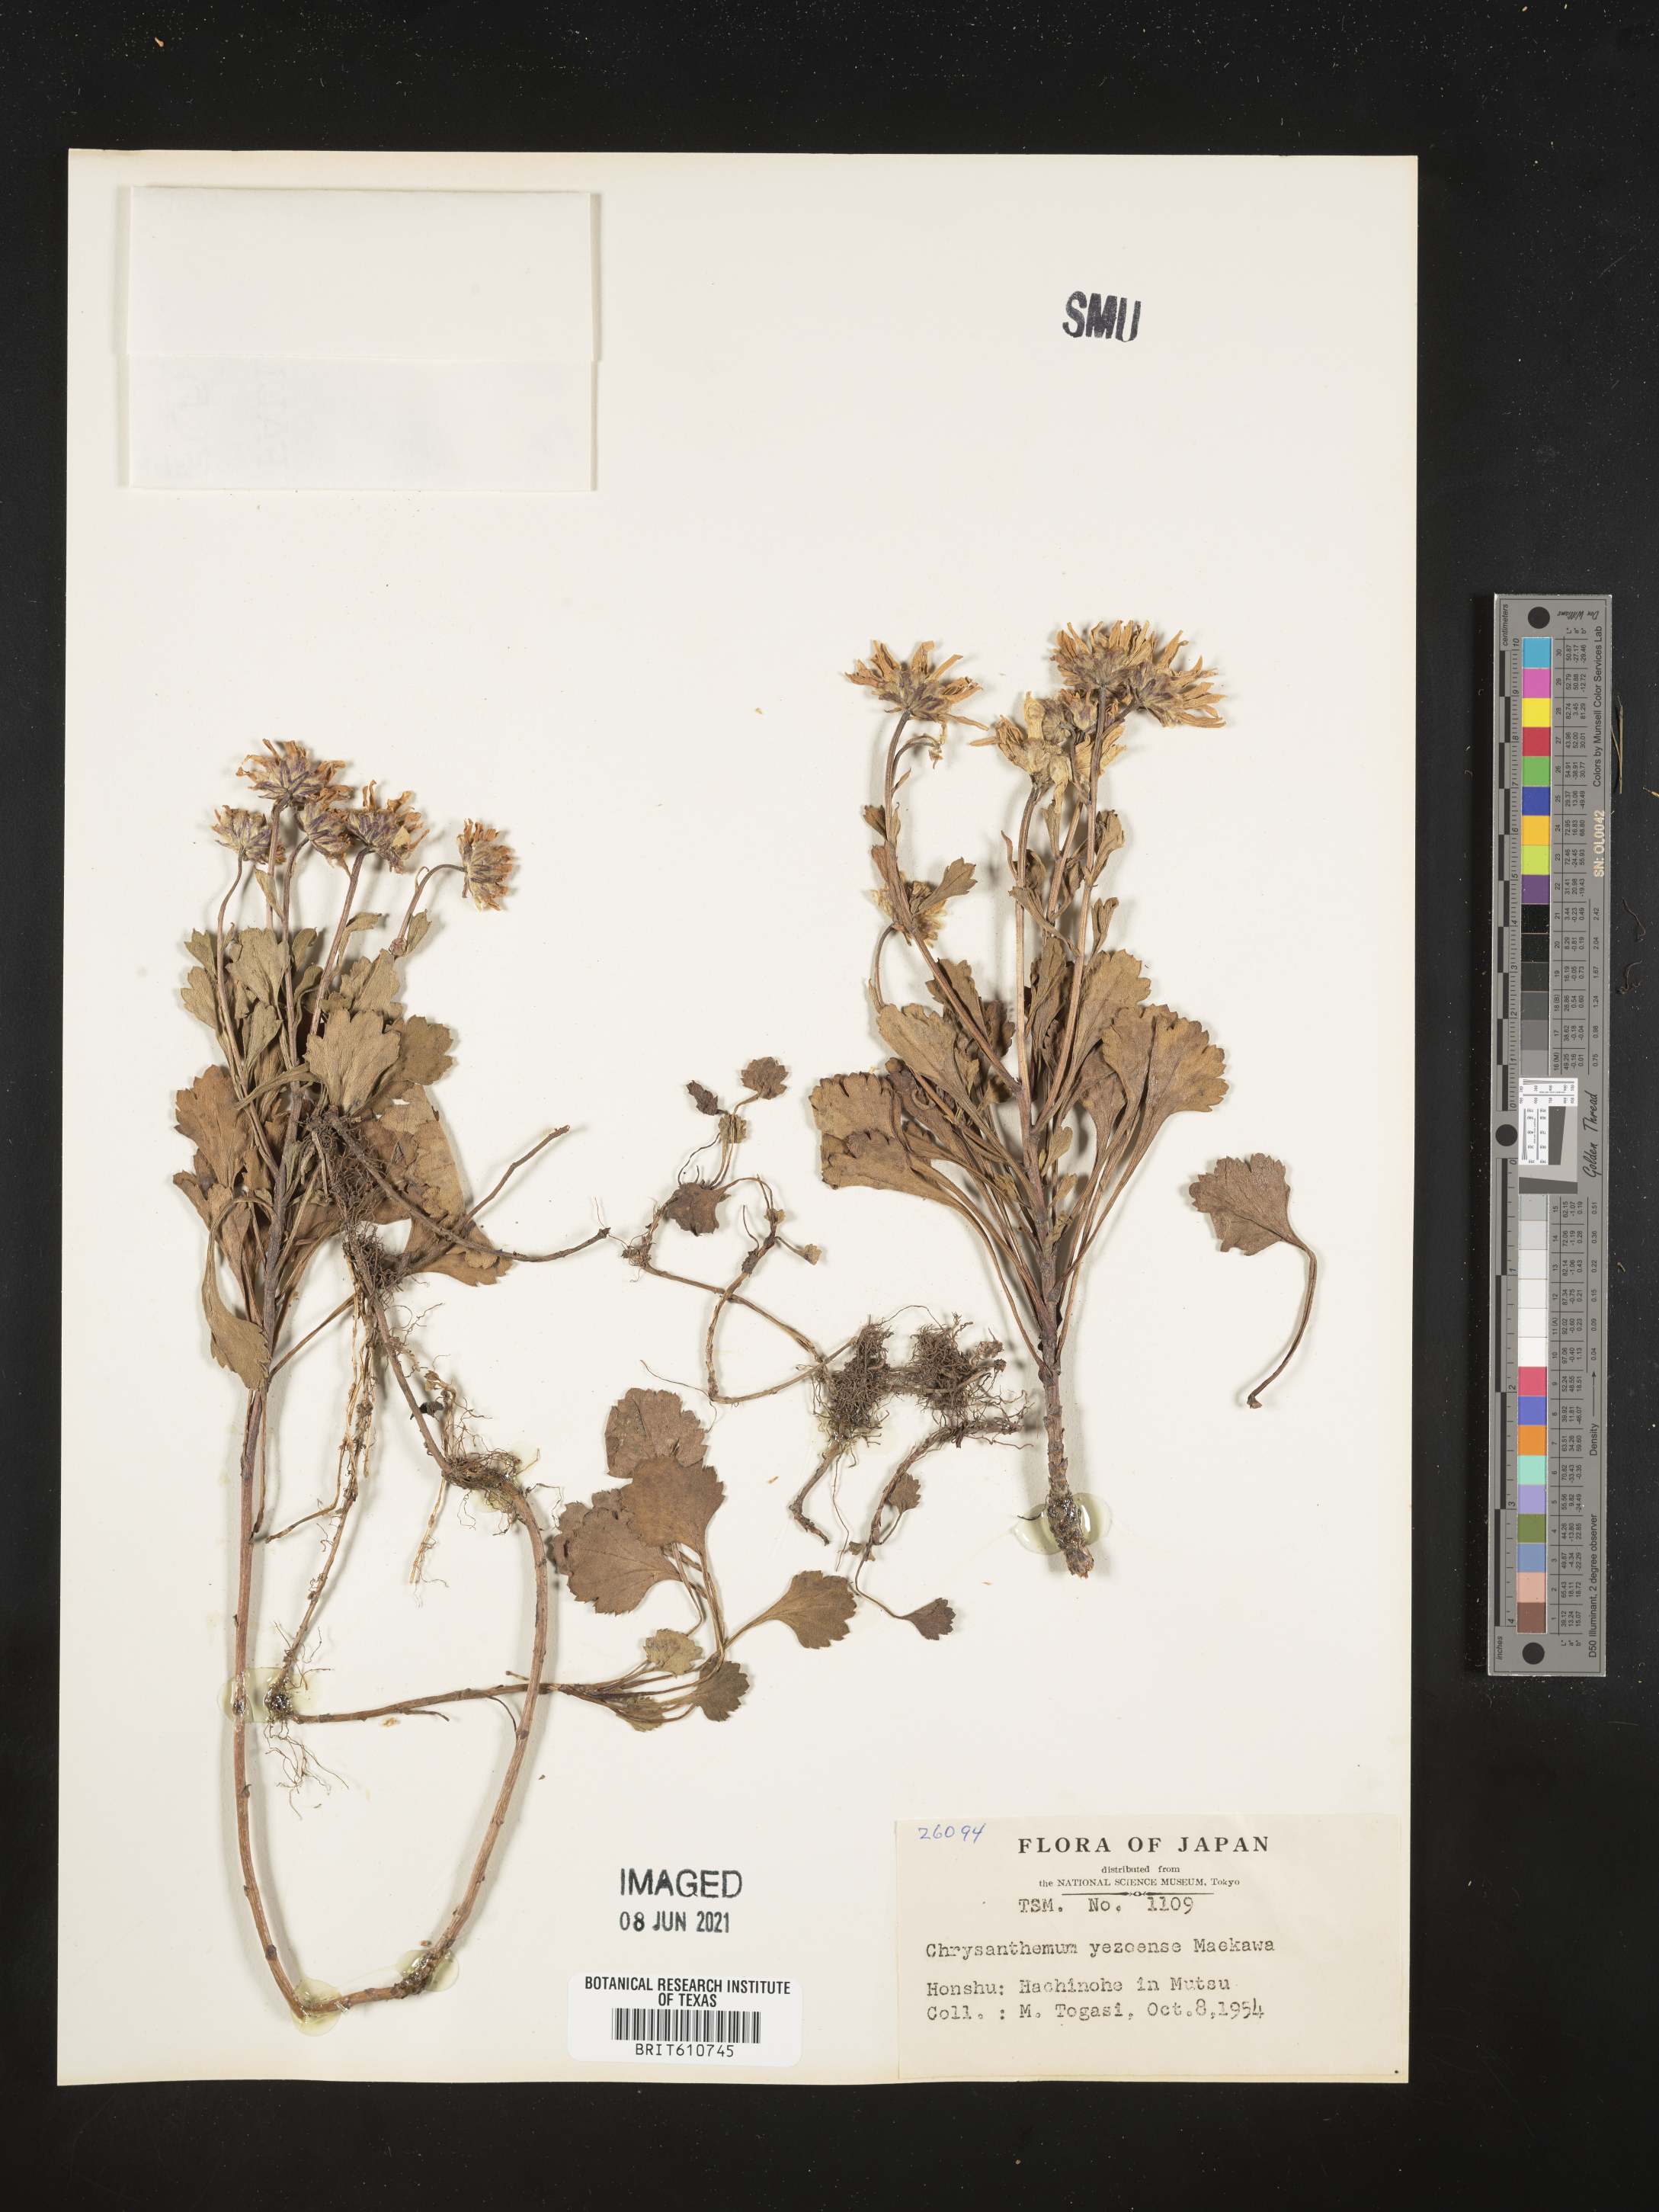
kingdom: Plantae
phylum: Tracheophyta
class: Magnoliopsida
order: Asterales
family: Asteraceae
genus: Arctanthemum
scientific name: Arctanthemum arcticum
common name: Arctic daisy
